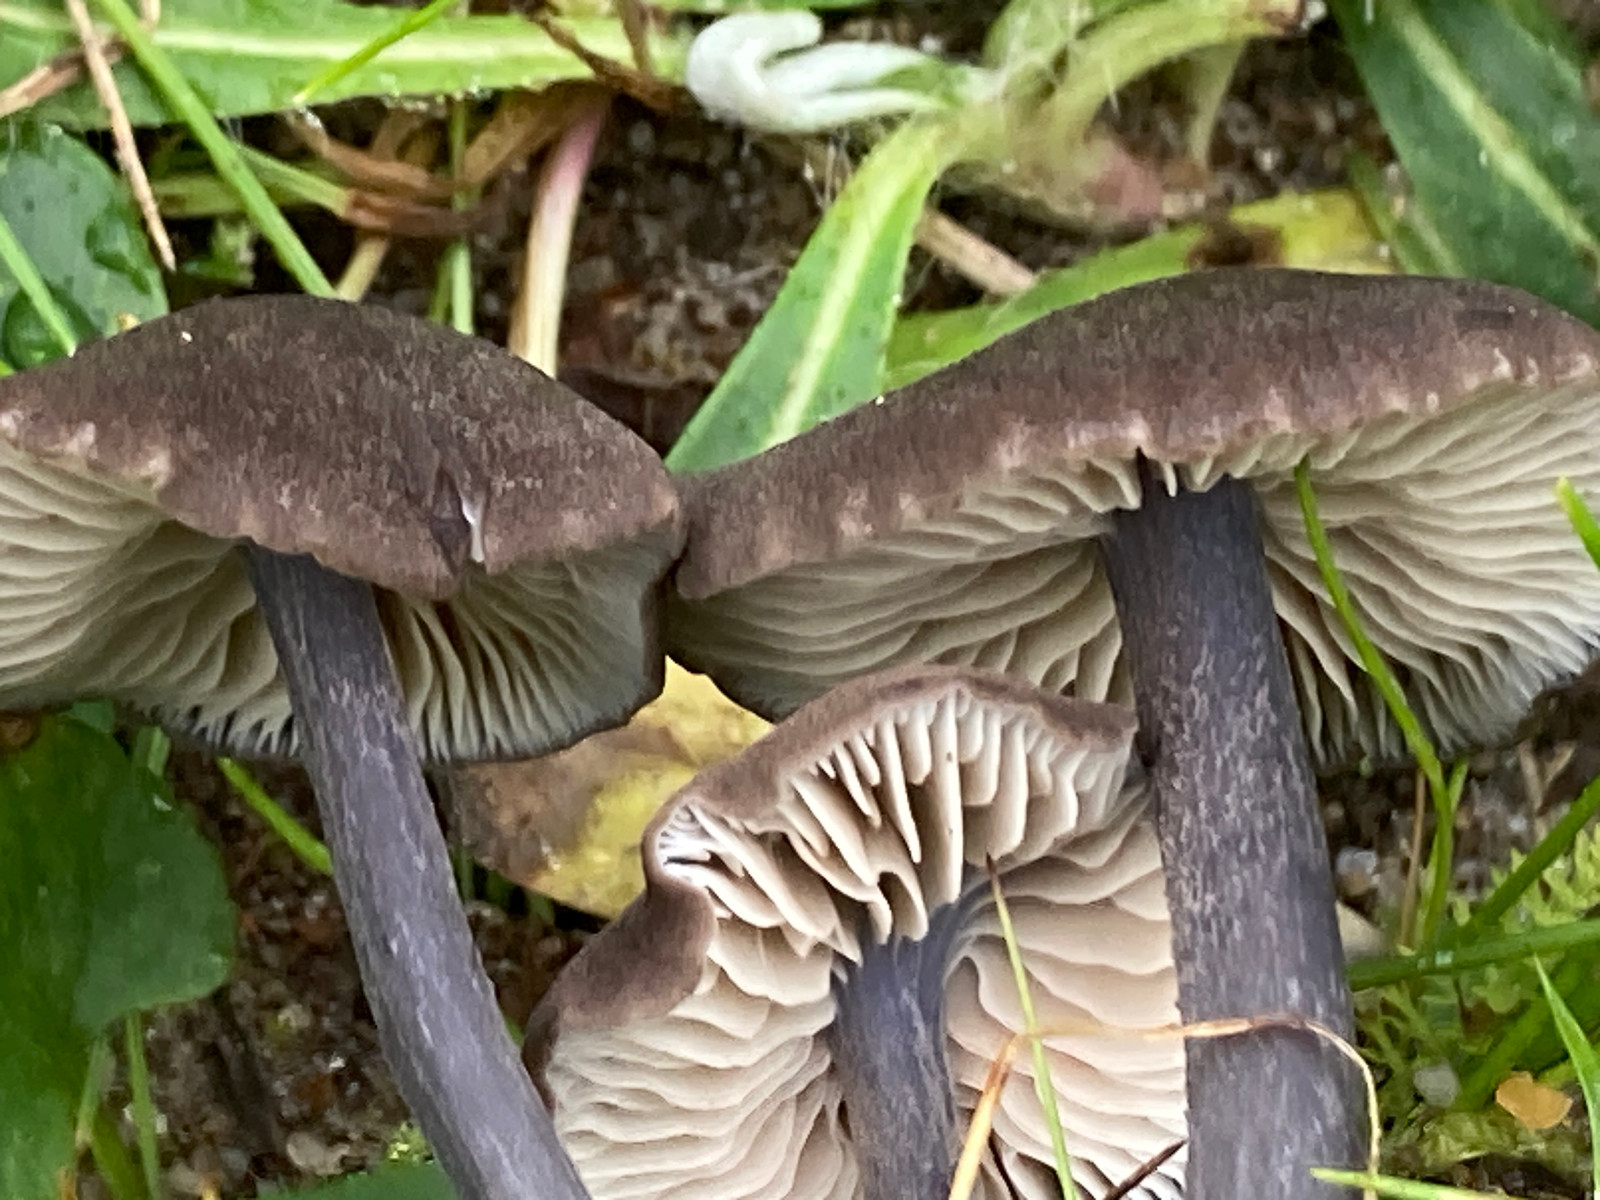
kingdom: Fungi
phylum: Basidiomycota
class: Agaricomycetes
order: Agaricales
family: Entolomataceae
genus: Entoloma
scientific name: Entoloma atrocoeruleum
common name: sortblå rødblad
